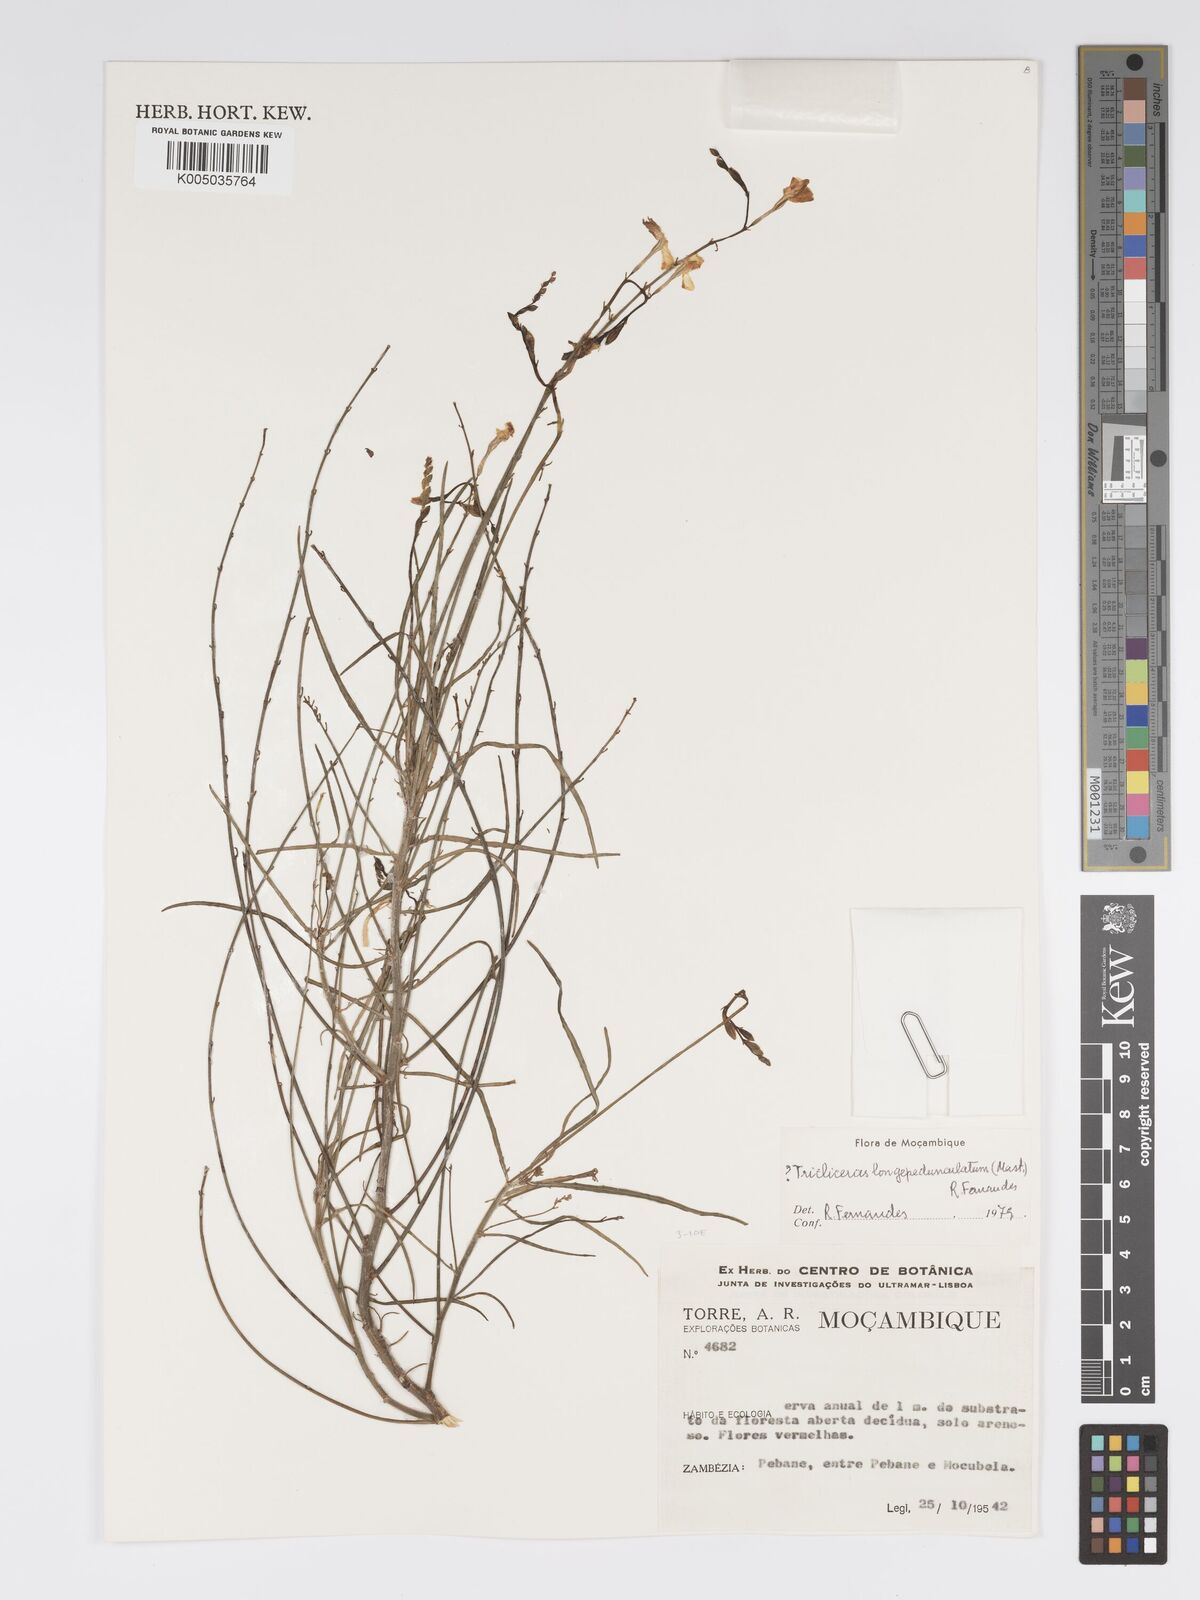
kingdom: Plantae
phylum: Tracheophyta
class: Magnoliopsida
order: Malpighiales
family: Turneraceae
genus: Tricliceras
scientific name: Tricliceras longepedunculatum
